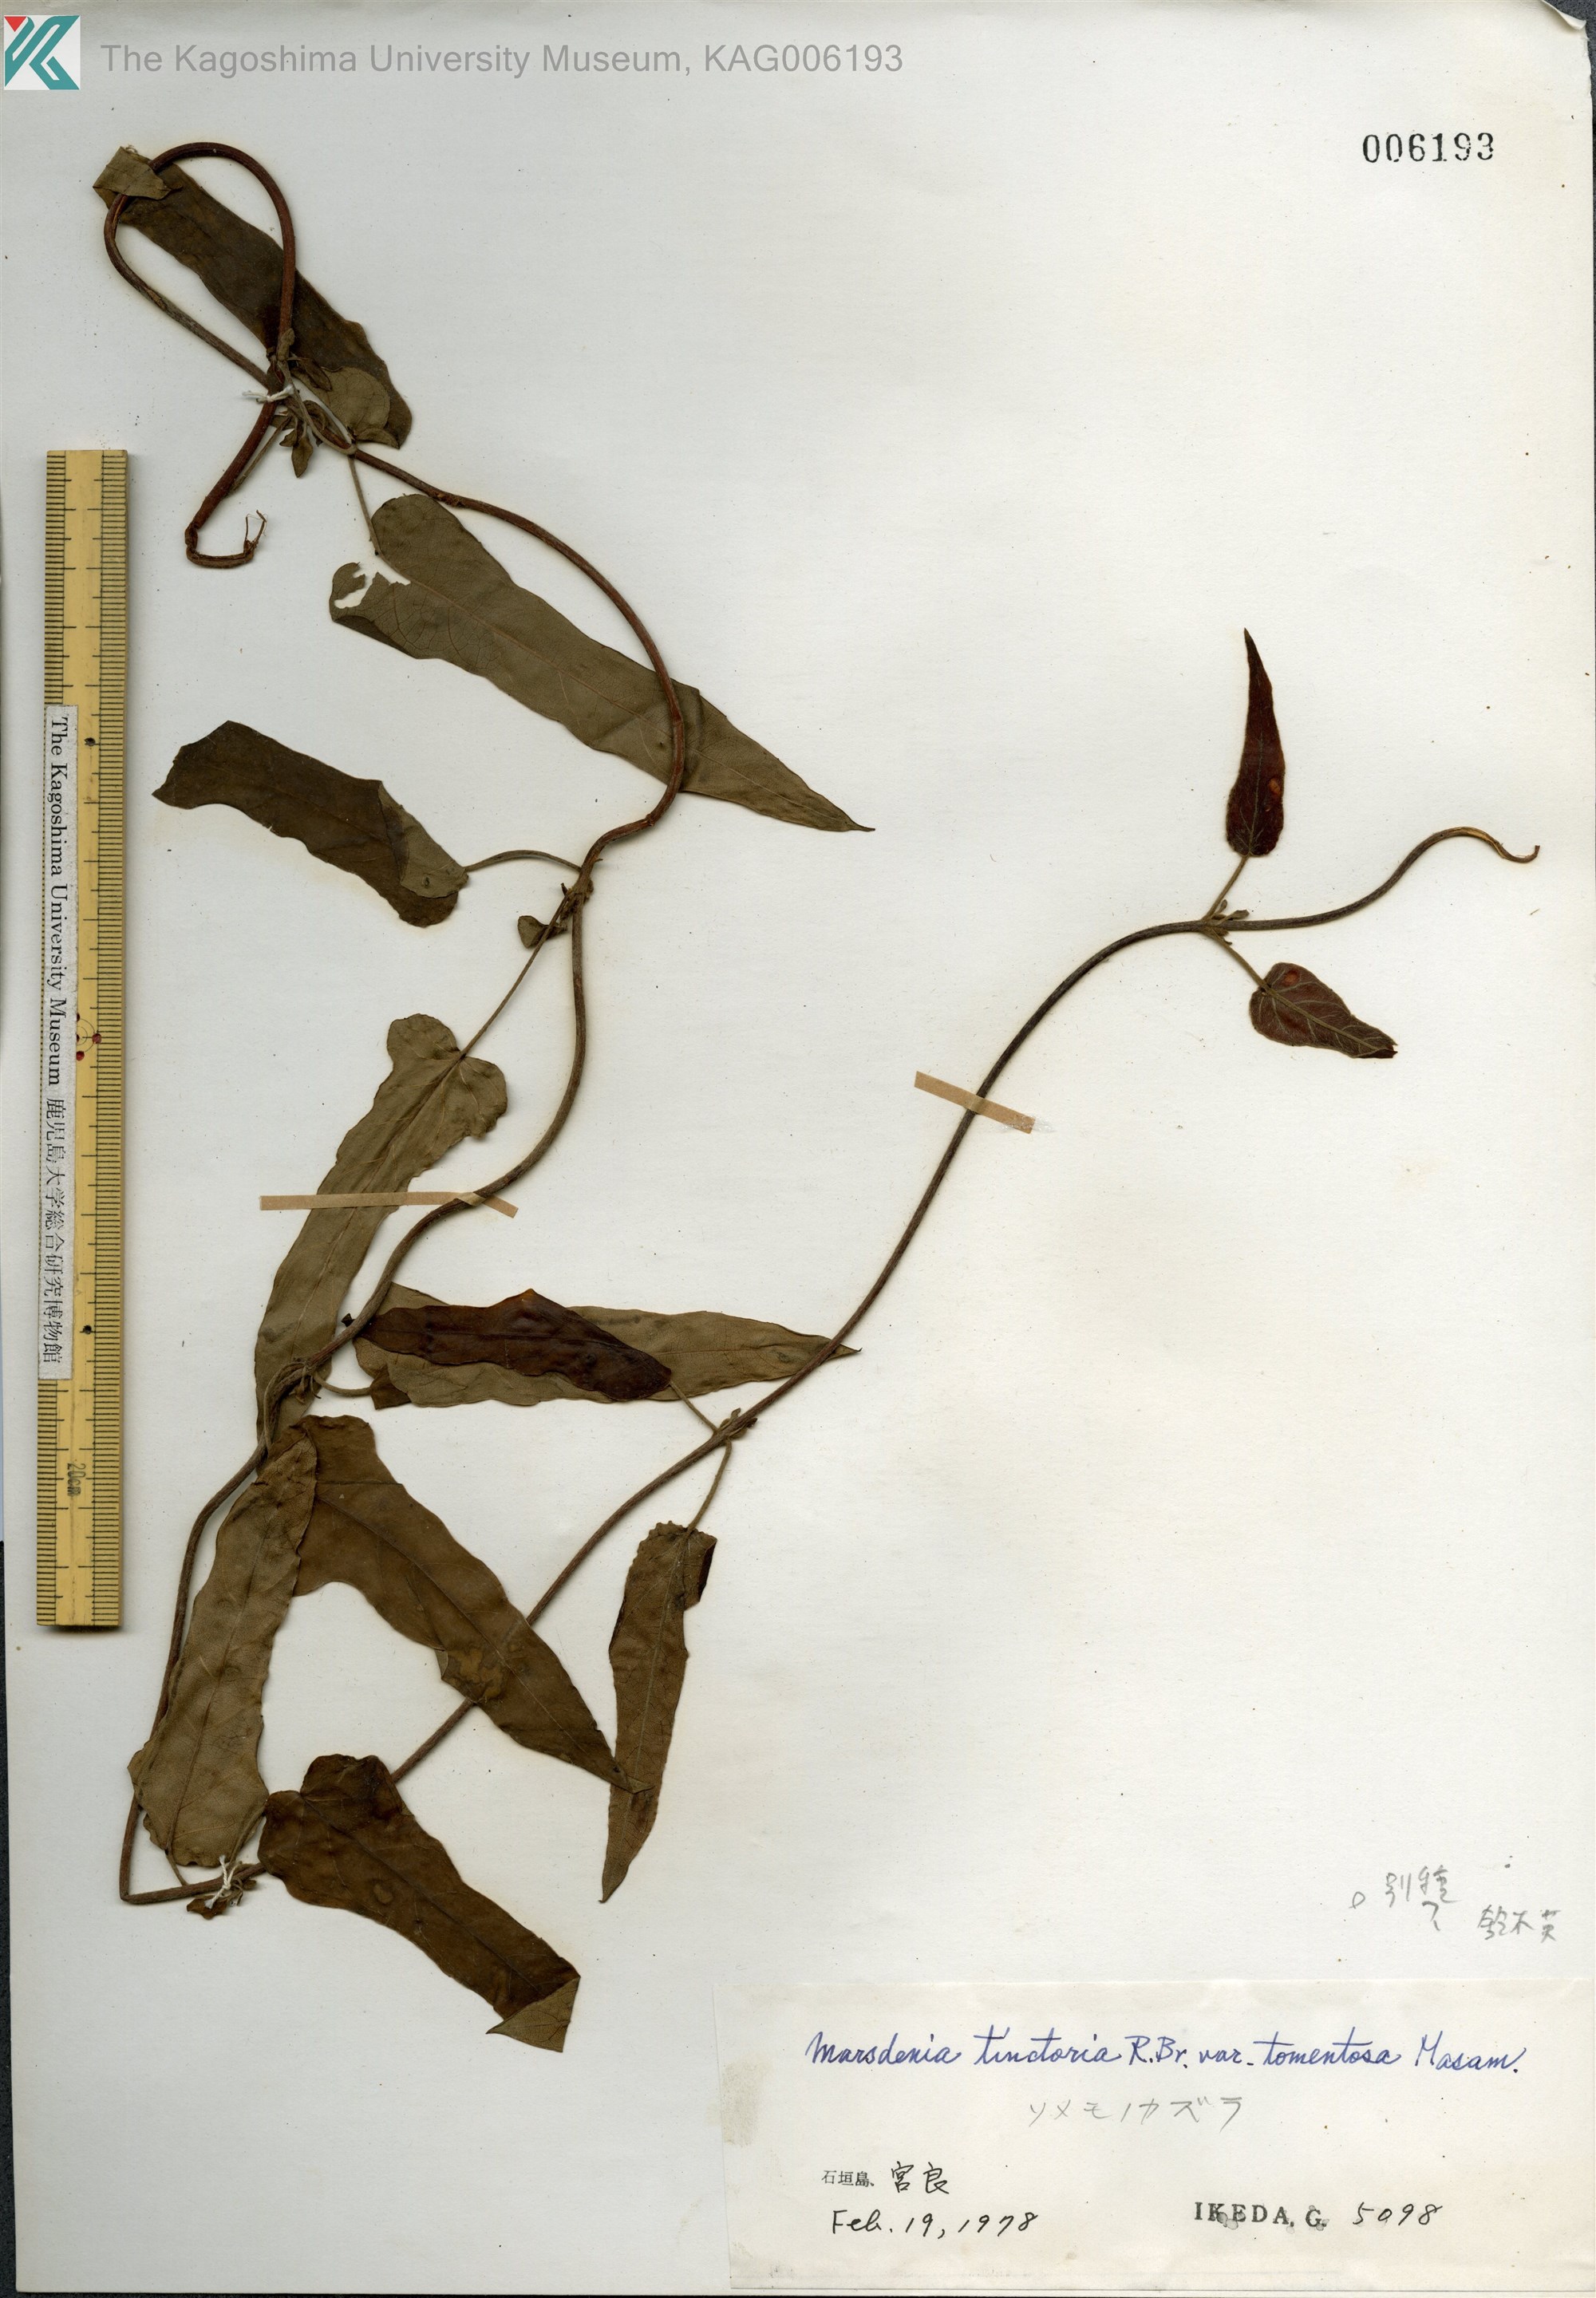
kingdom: Plantae
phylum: Tracheophyta
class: Magnoliopsida
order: Gentianales
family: Apocynaceae
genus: Marsdenia
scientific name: Marsdenia tinctoria
